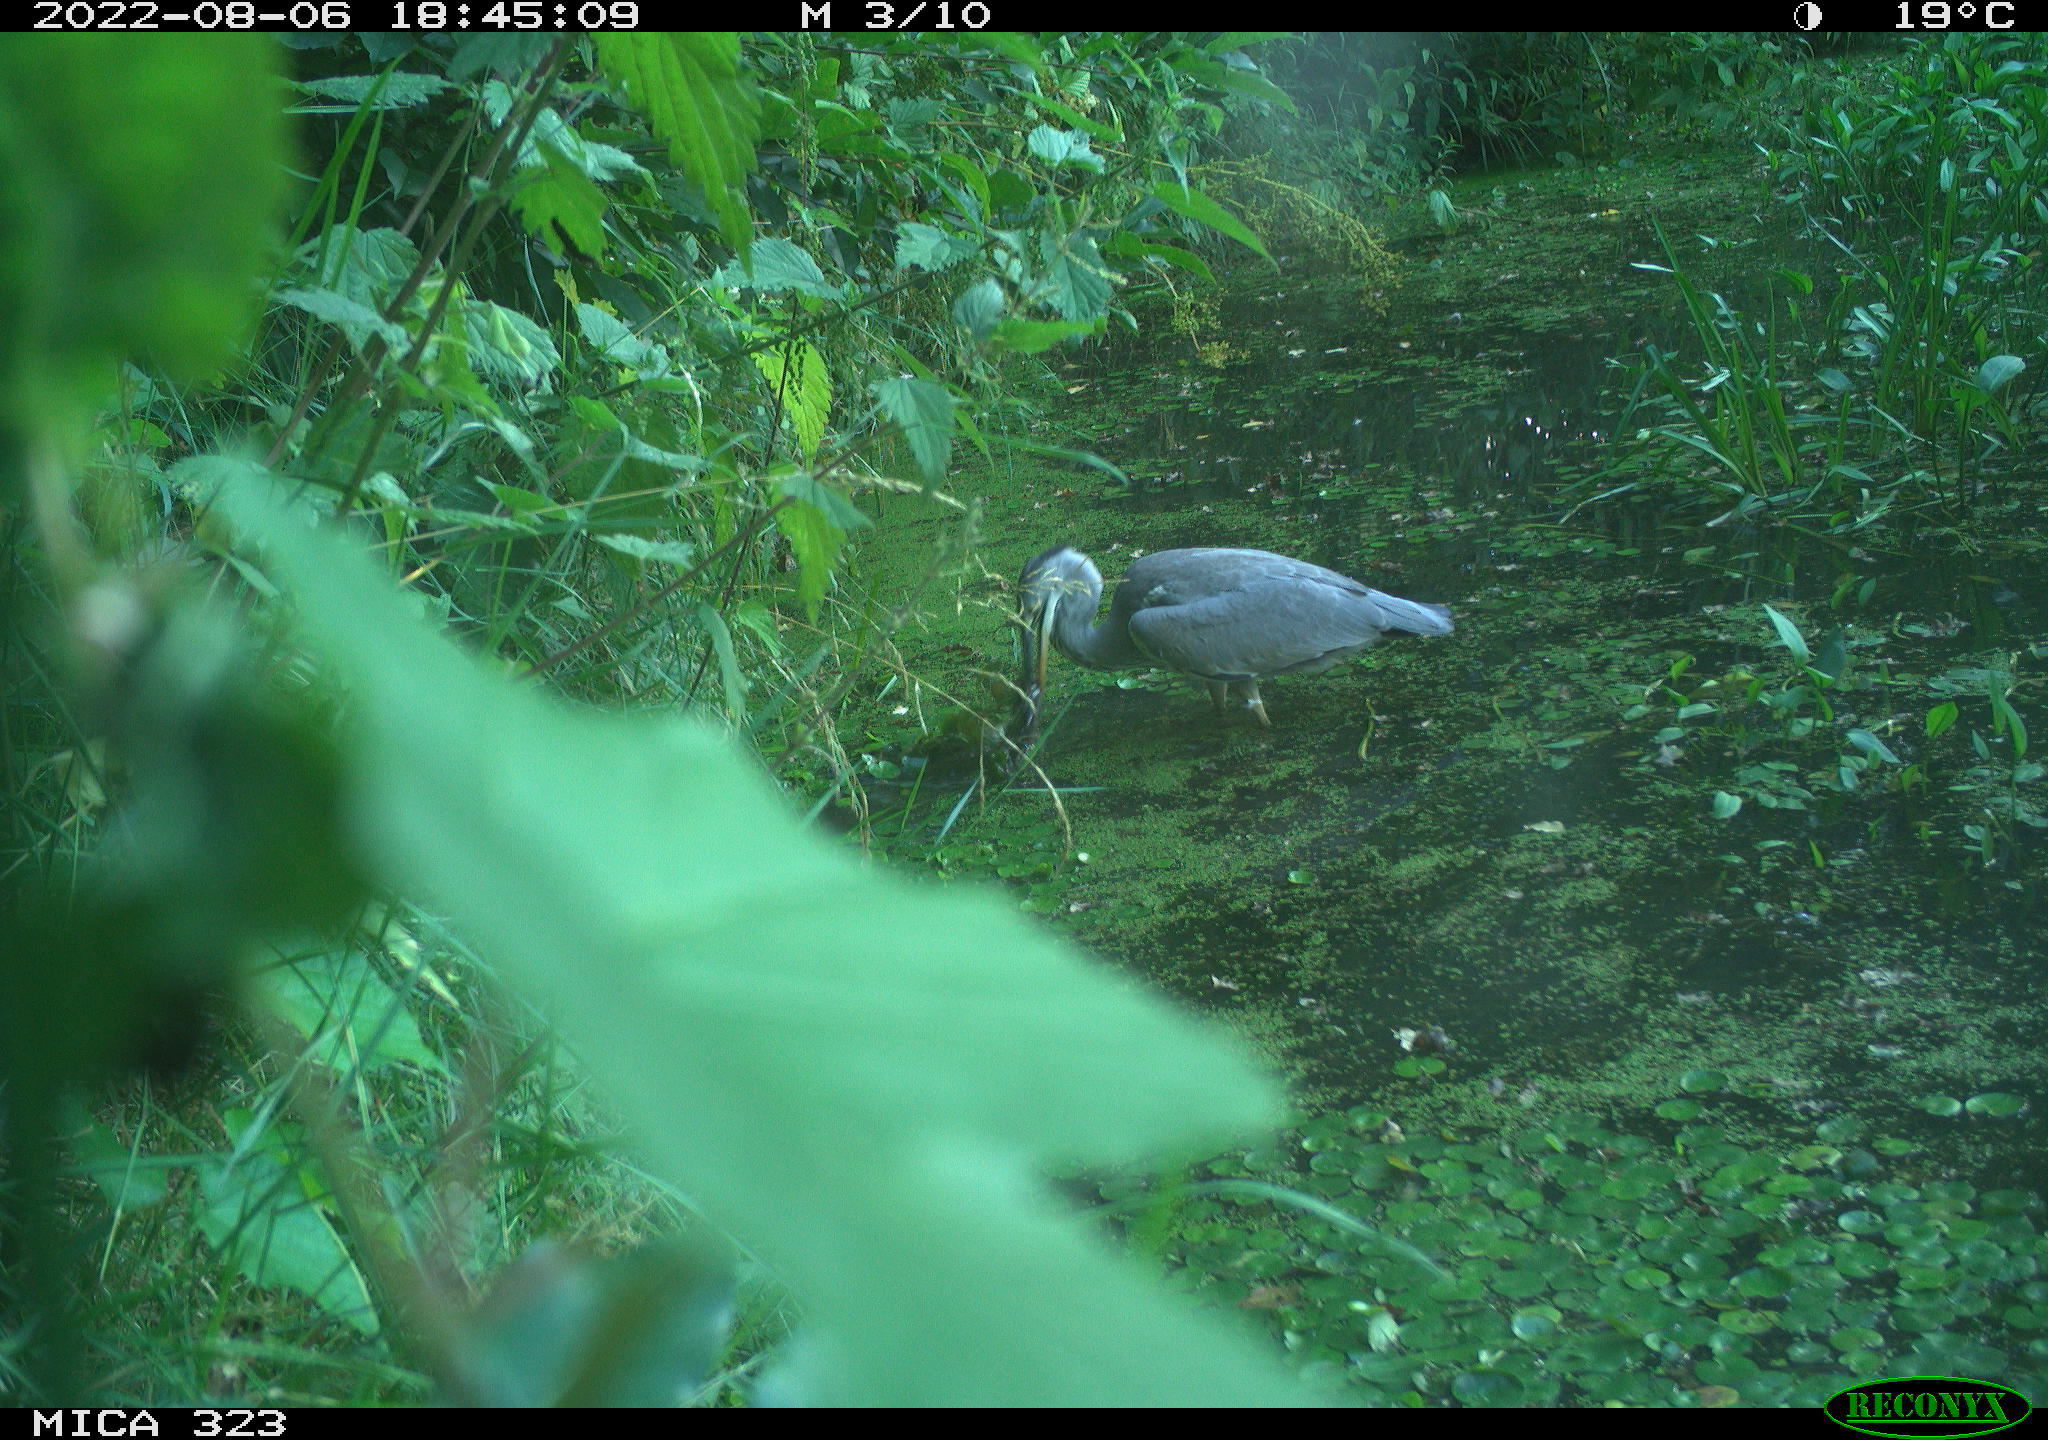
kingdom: Animalia
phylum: Chordata
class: Aves
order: Pelecaniformes
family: Ardeidae
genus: Ardea
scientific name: Ardea cinerea
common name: Grey heron
